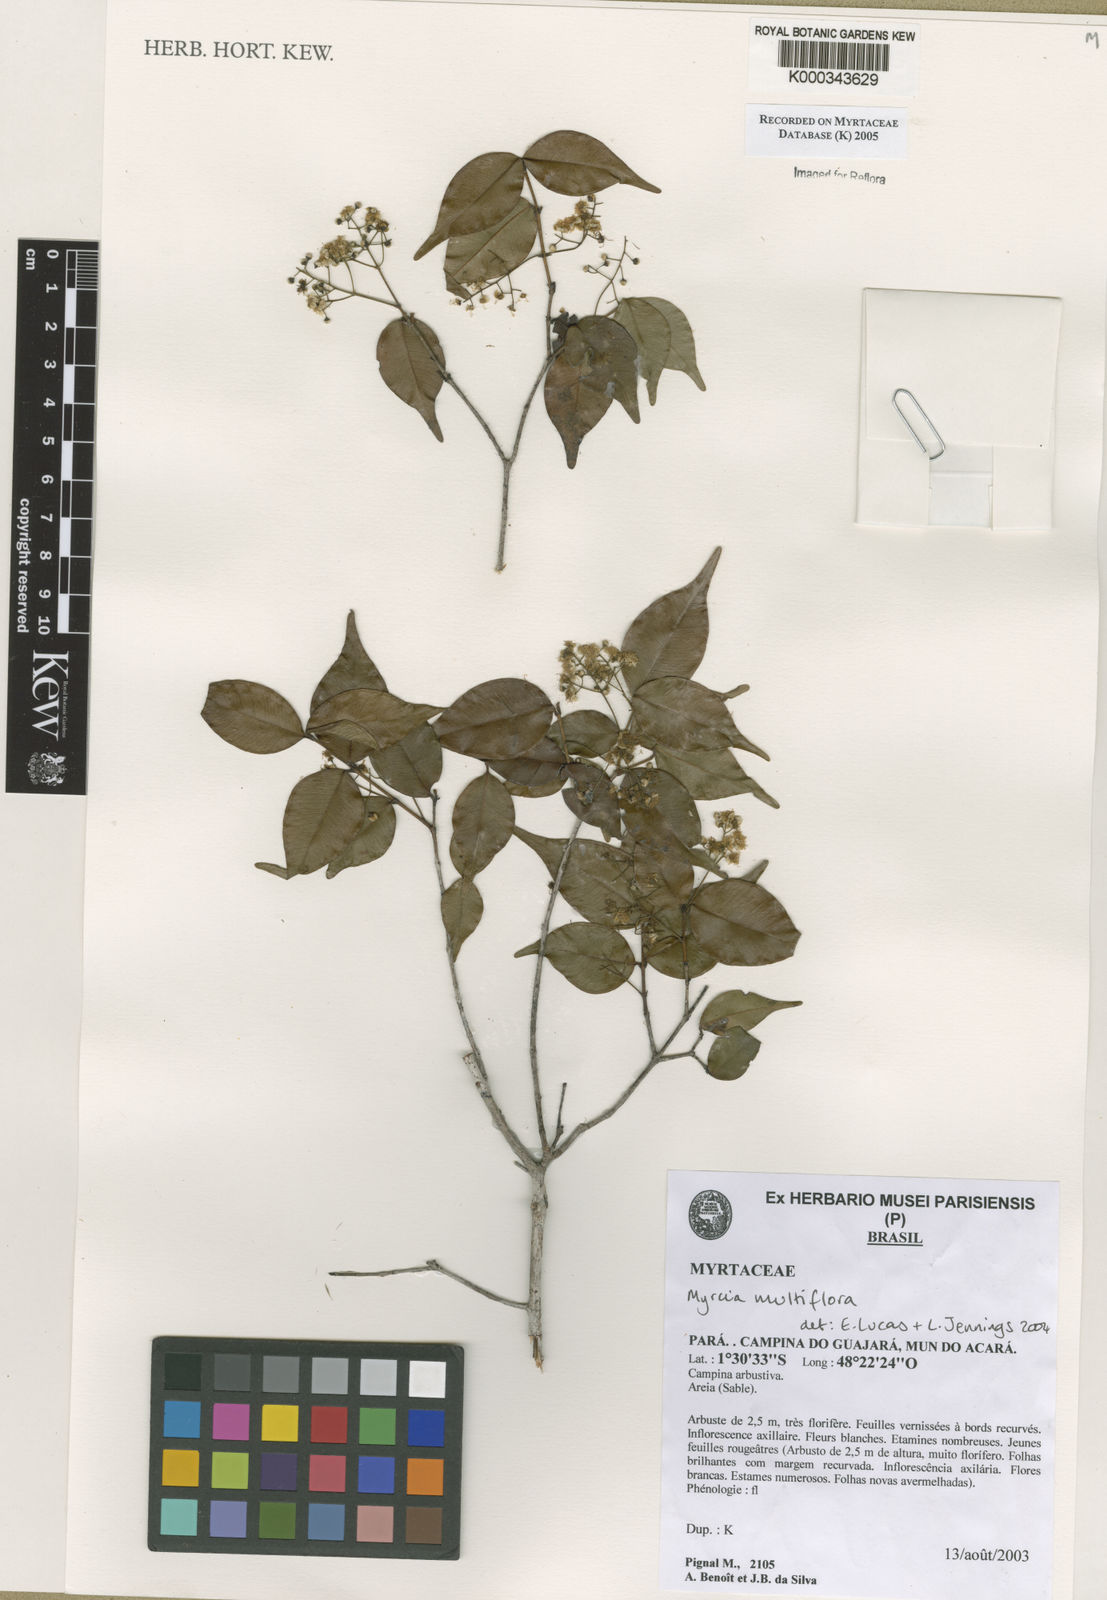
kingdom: Plantae
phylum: Tracheophyta
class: Magnoliopsida
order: Myrtales
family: Myrtaceae
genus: Myrcia
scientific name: Myrcia multiflora
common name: Pedra hume
